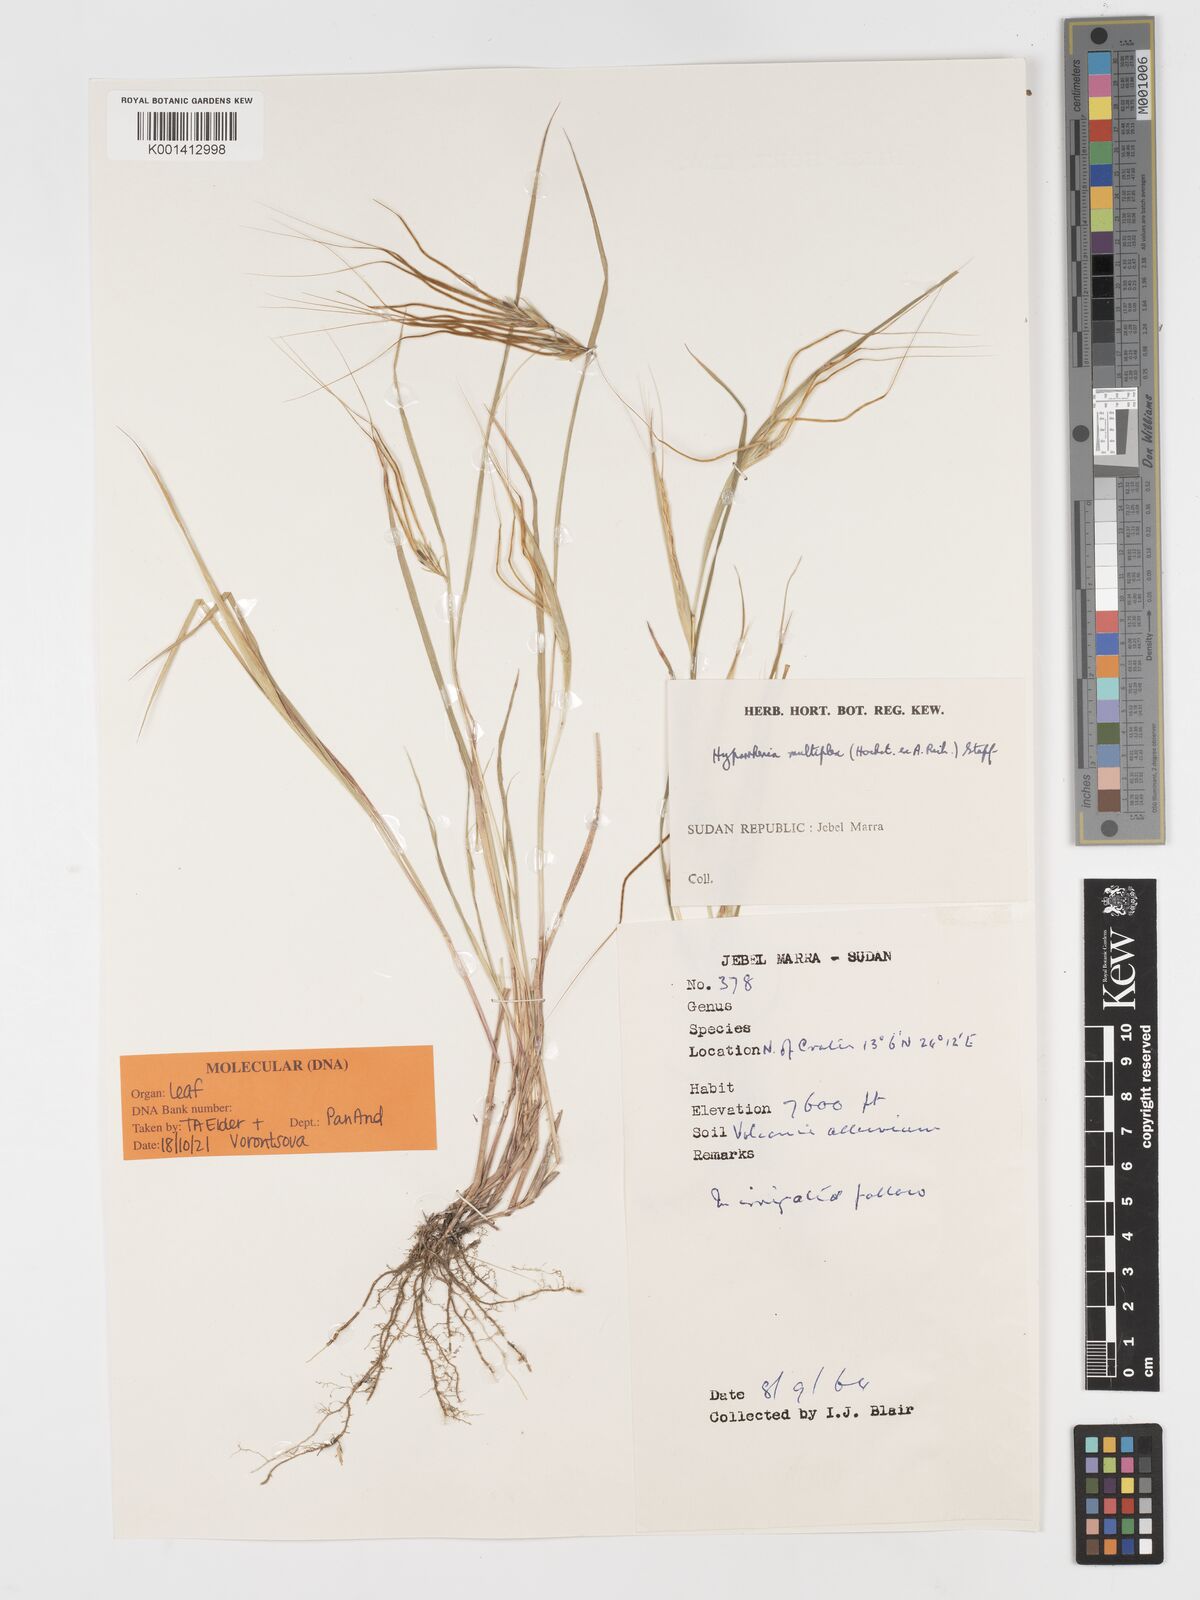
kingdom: Plantae
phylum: Tracheophyta
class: Liliopsida
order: Poales
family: Poaceae
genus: Hyparrhenia
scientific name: Hyparrhenia multiplex
